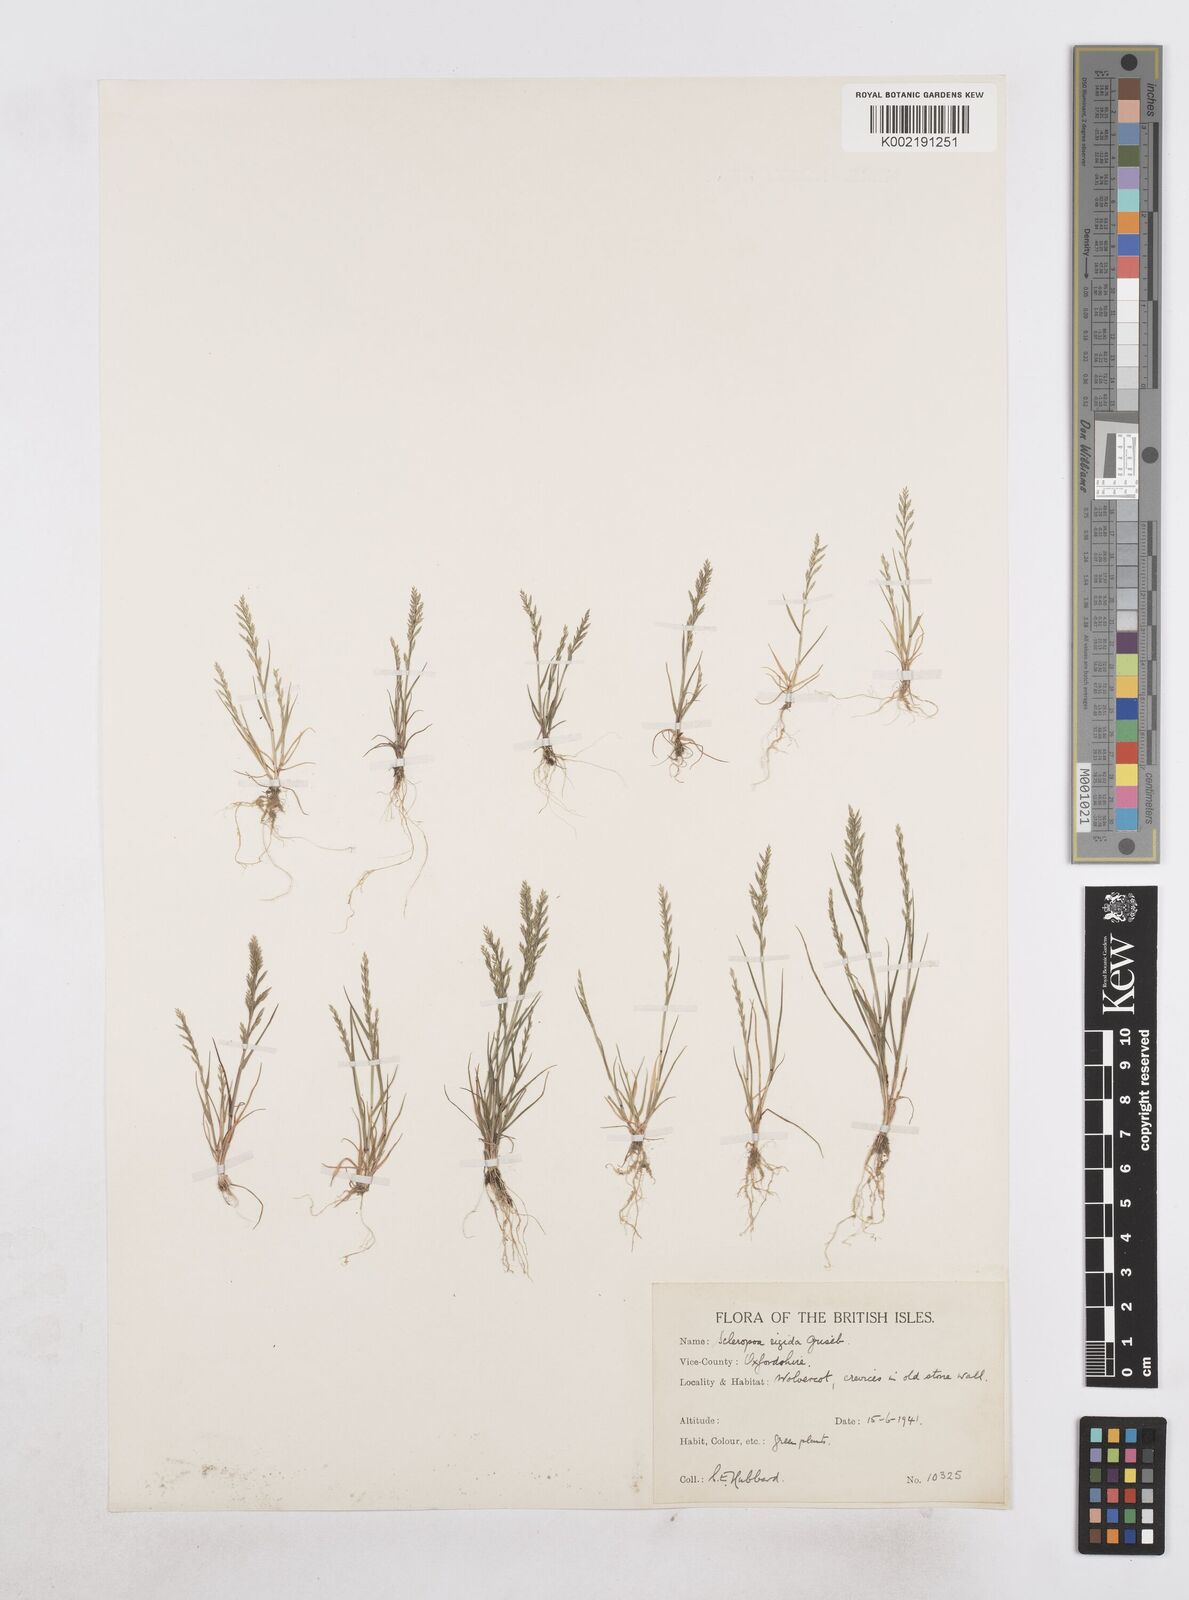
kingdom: Plantae
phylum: Tracheophyta
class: Liliopsida
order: Poales
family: Poaceae
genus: Catapodium
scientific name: Catapodium rigidum
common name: Fern-grass
